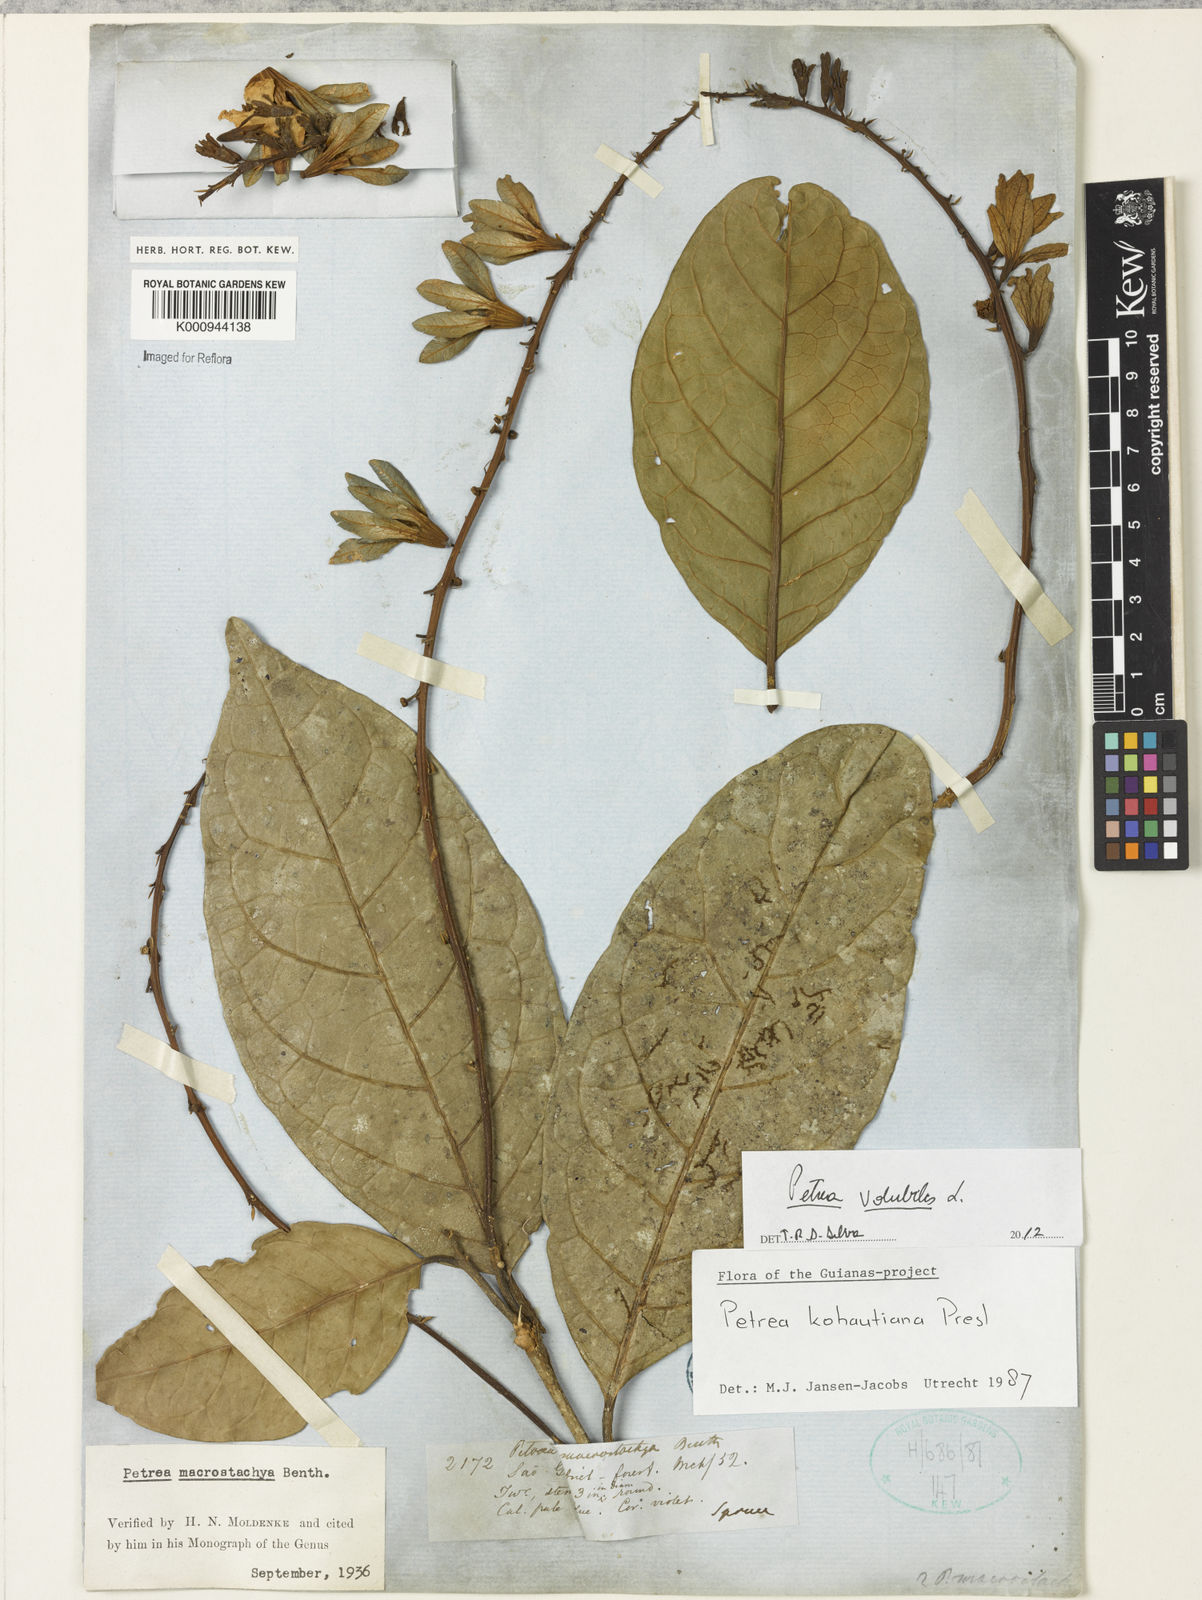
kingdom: Plantae
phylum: Tracheophyta
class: Magnoliopsida
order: Lamiales
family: Verbenaceae
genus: Petrea
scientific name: Petrea volubilis
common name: Queen's-wreath
